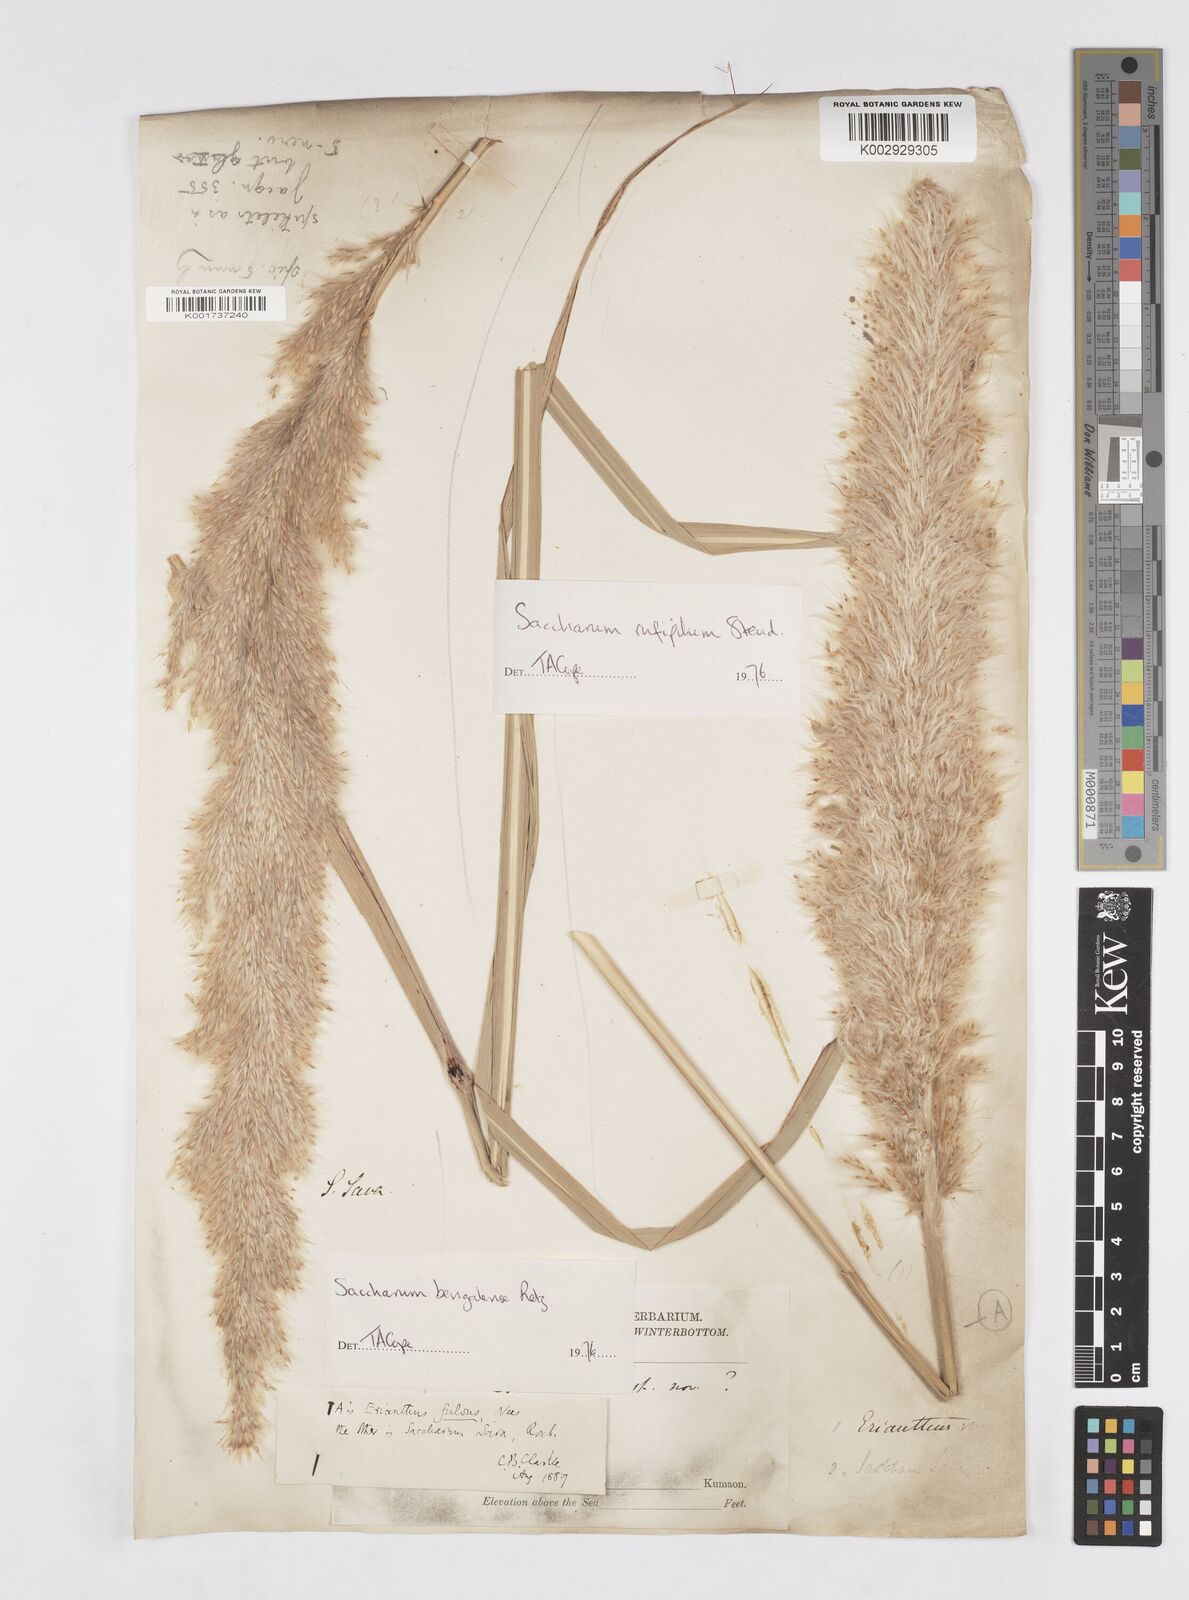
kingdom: Plantae
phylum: Tracheophyta
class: Liliopsida
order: Poales
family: Poaceae
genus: Tripidium
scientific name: Tripidium rufipilum
